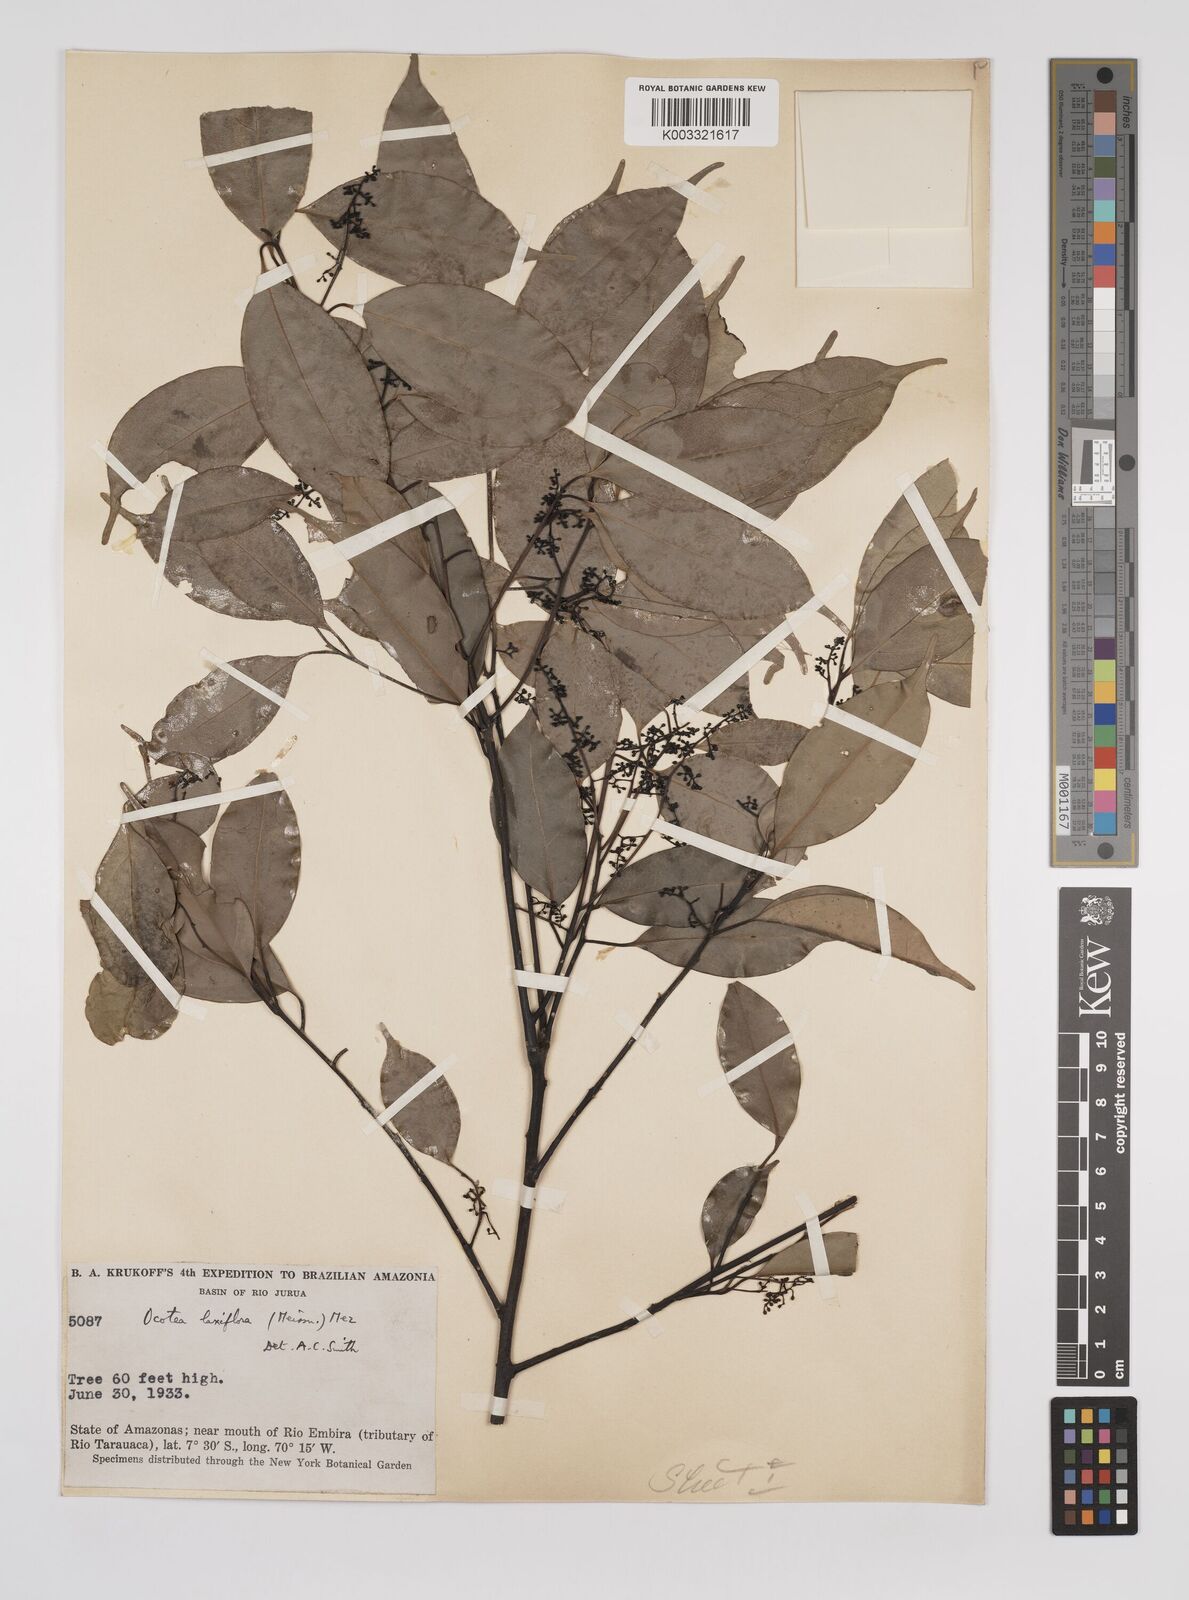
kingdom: Plantae
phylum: Tracheophyta
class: Magnoliopsida
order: Laurales
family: Lauraceae
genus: Ocotea
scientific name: Ocotea pauciflora
